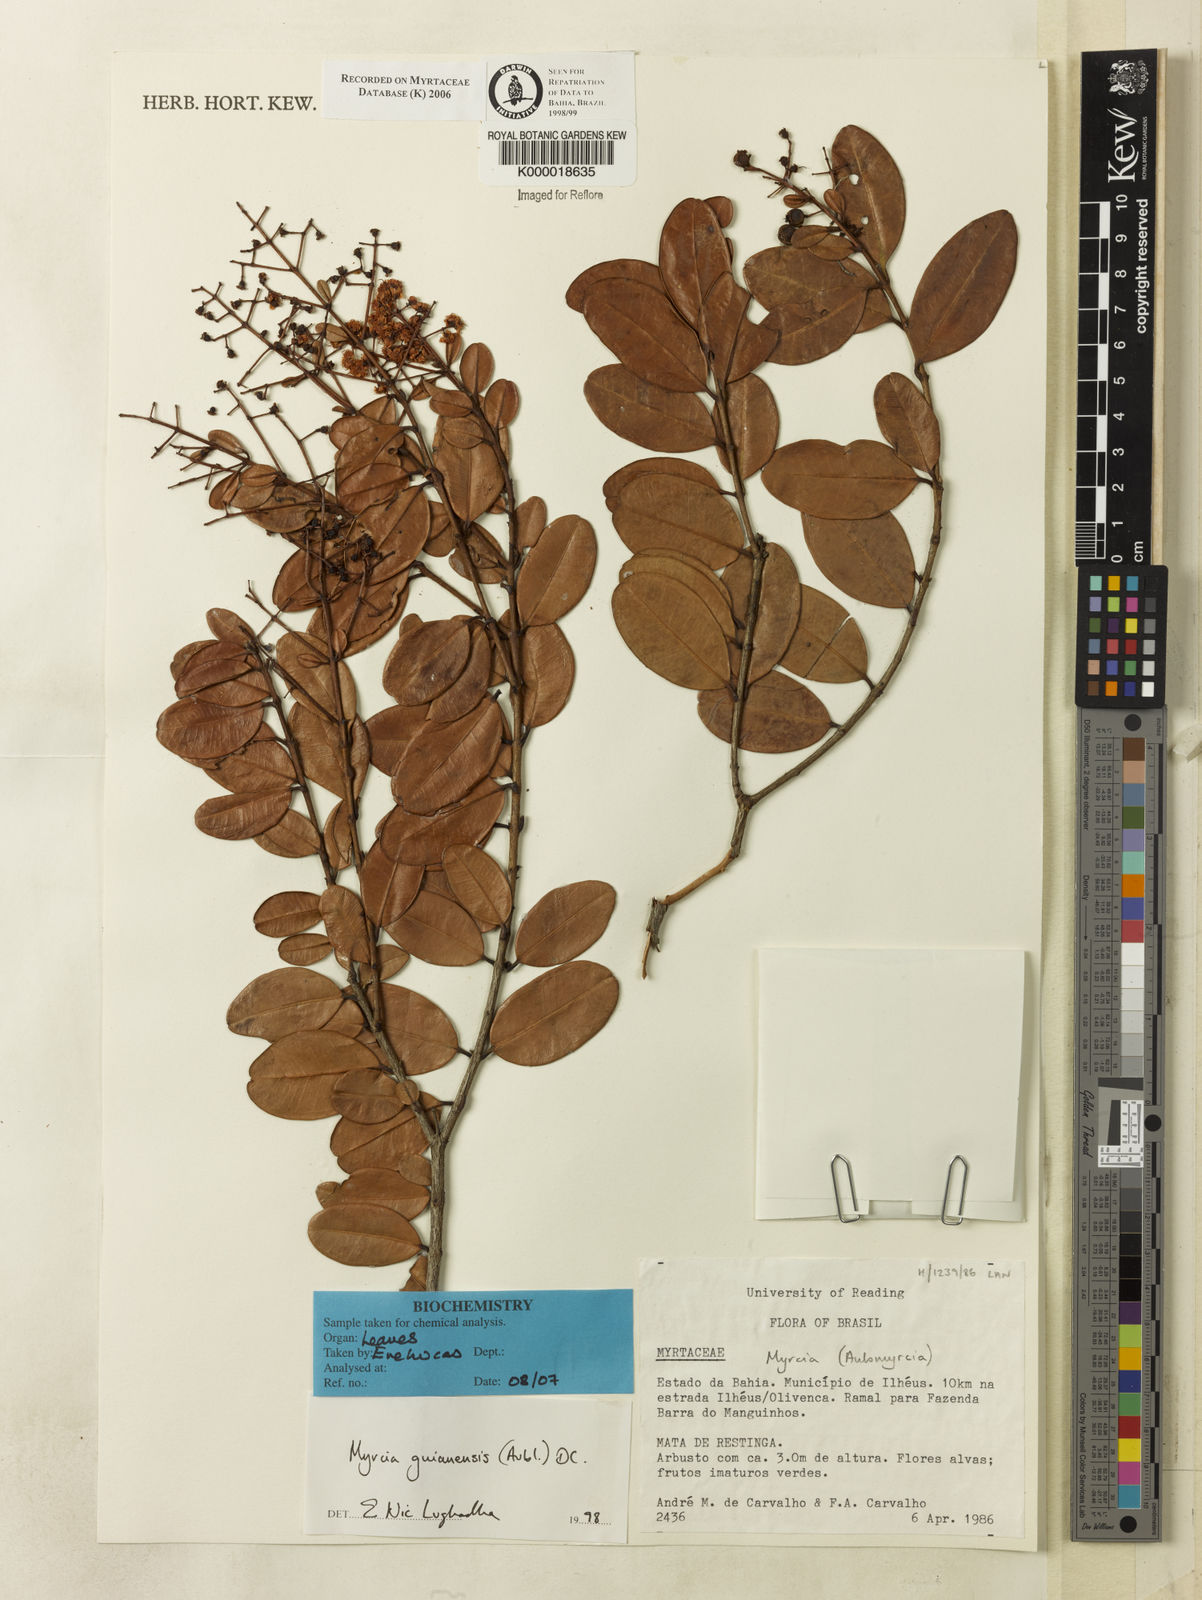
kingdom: Plantae
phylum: Tracheophyta
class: Magnoliopsida
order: Myrtales
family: Myrtaceae
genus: Myrcia
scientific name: Myrcia guianensis
